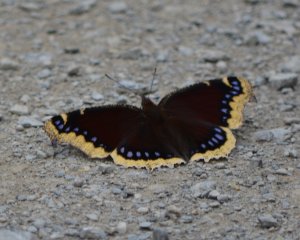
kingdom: Animalia
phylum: Arthropoda
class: Insecta
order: Lepidoptera
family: Nymphalidae
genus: Nymphalis
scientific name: Nymphalis antiopa
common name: Mourning Cloak
